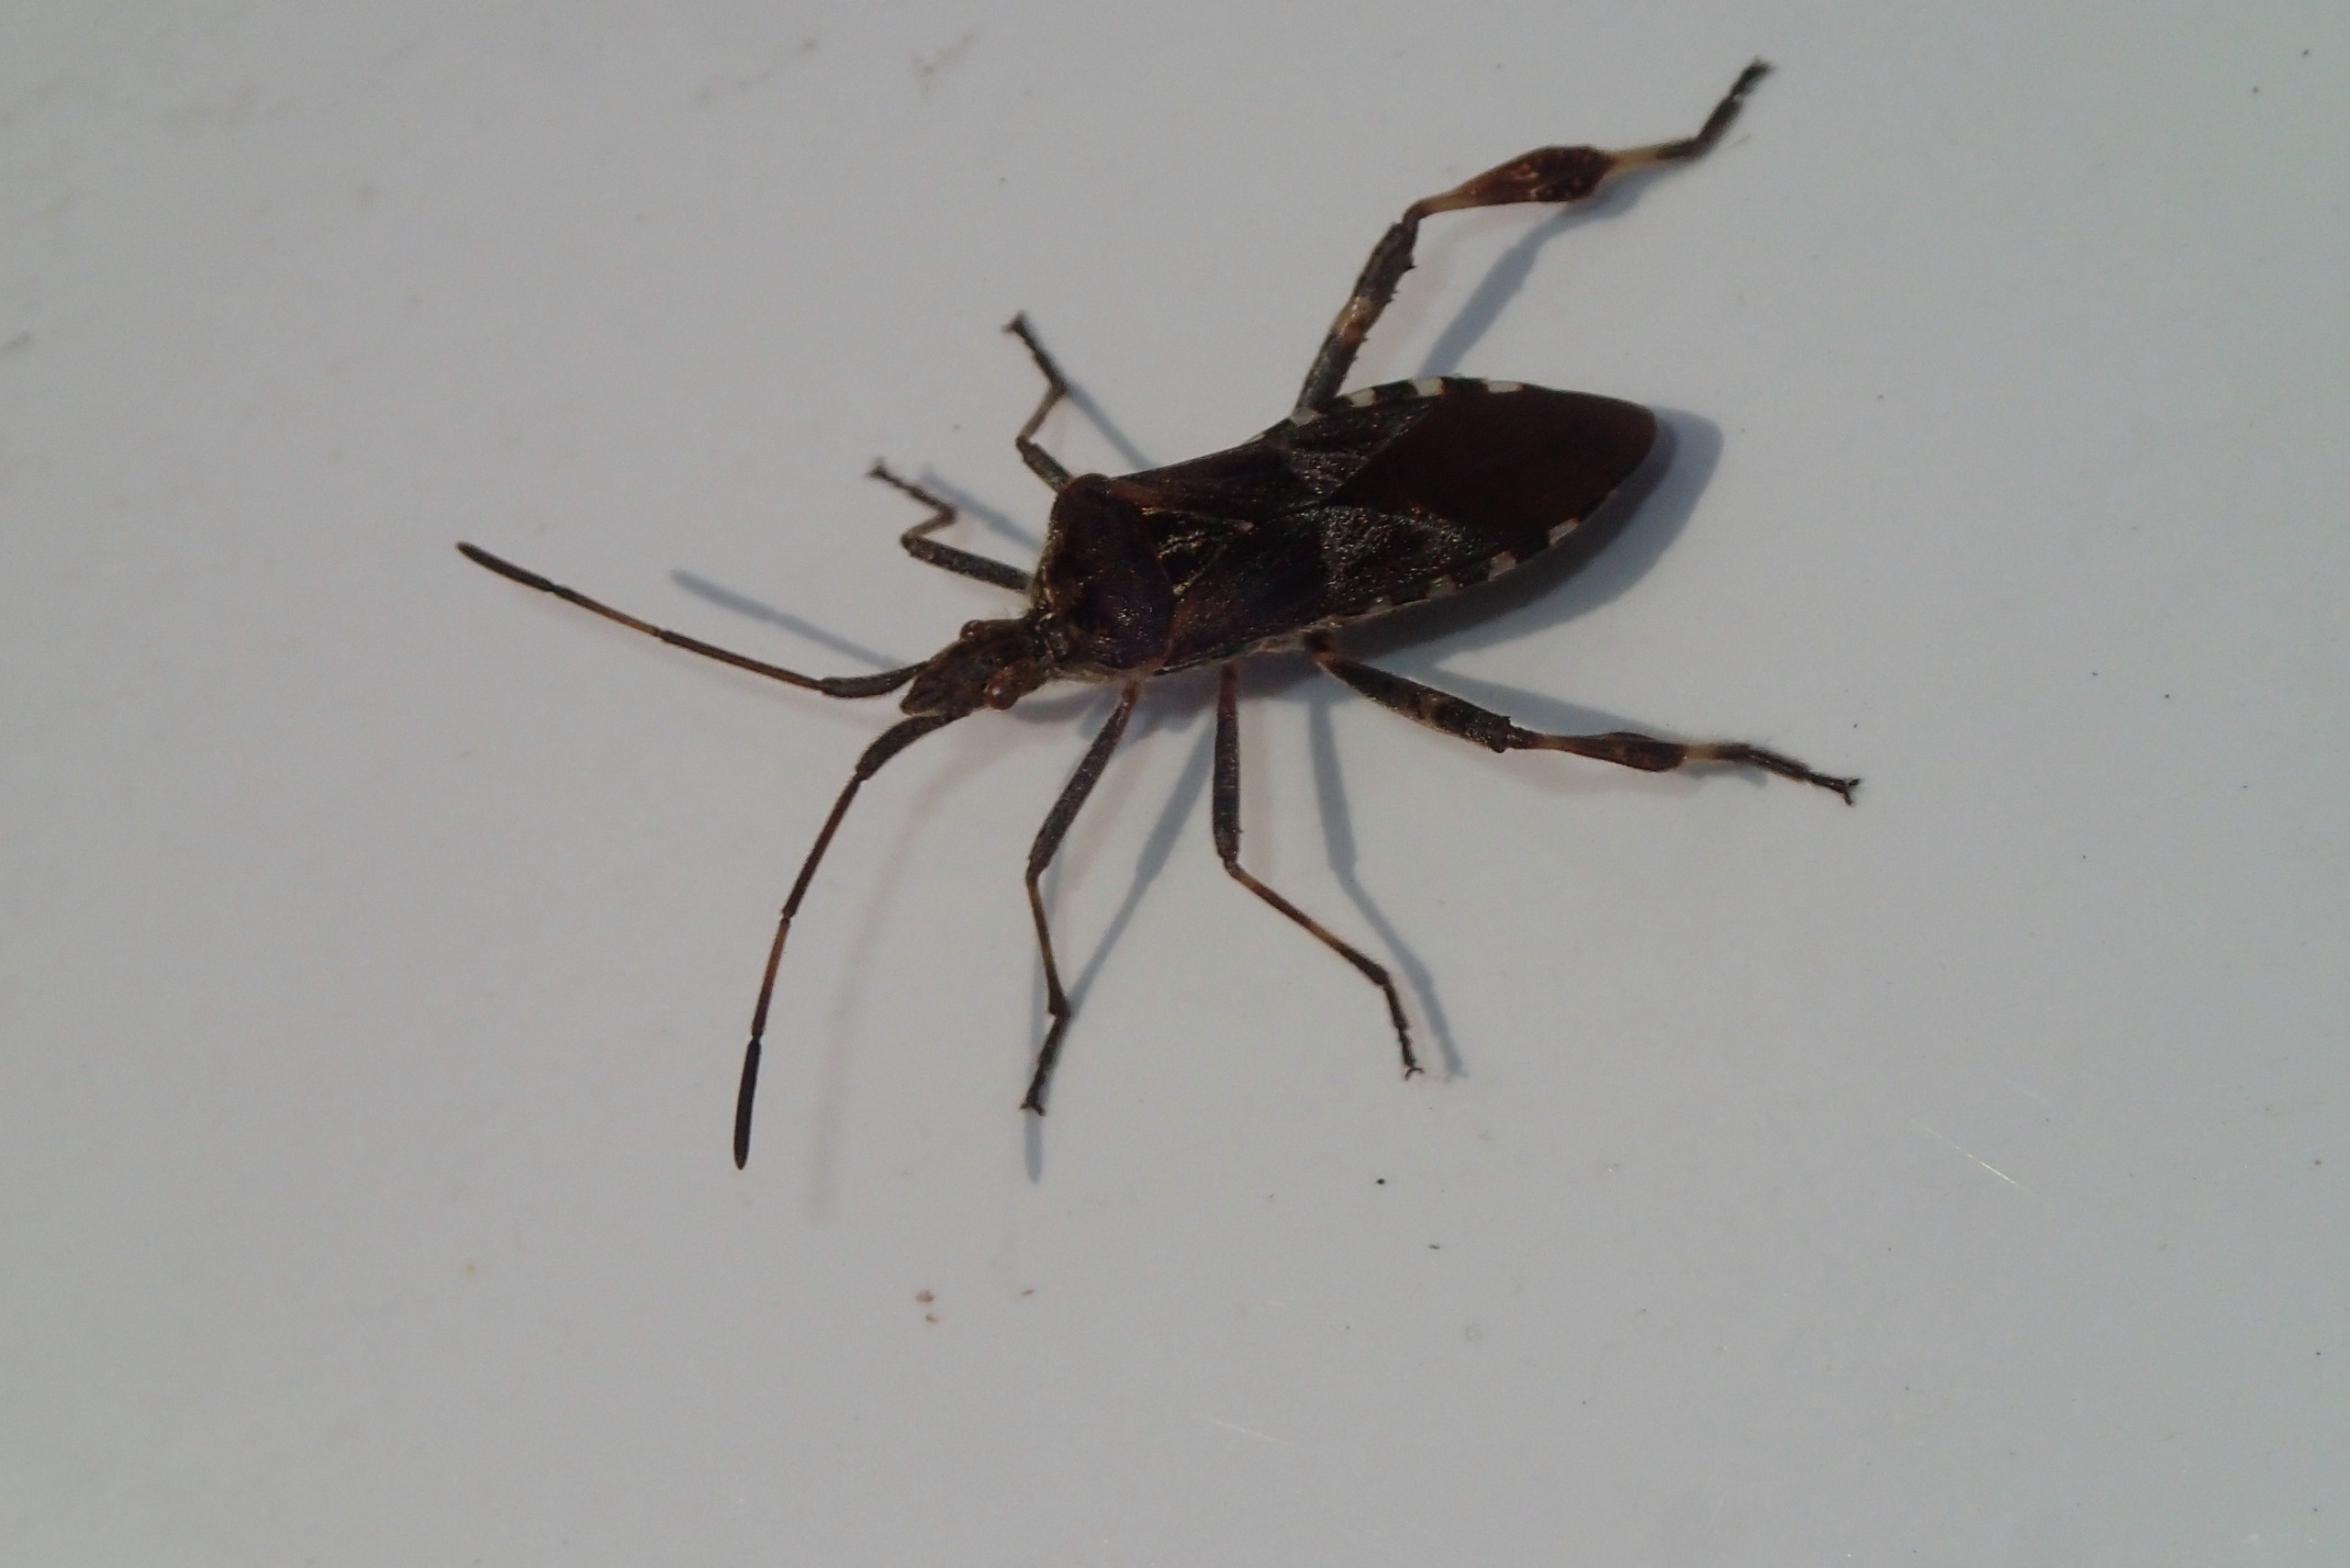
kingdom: Animalia
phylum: Arthropoda
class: Insecta
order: Hemiptera
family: Coreidae
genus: Leptoglossus
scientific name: Leptoglossus occidentalis
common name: Amerikansk fyrretæge
